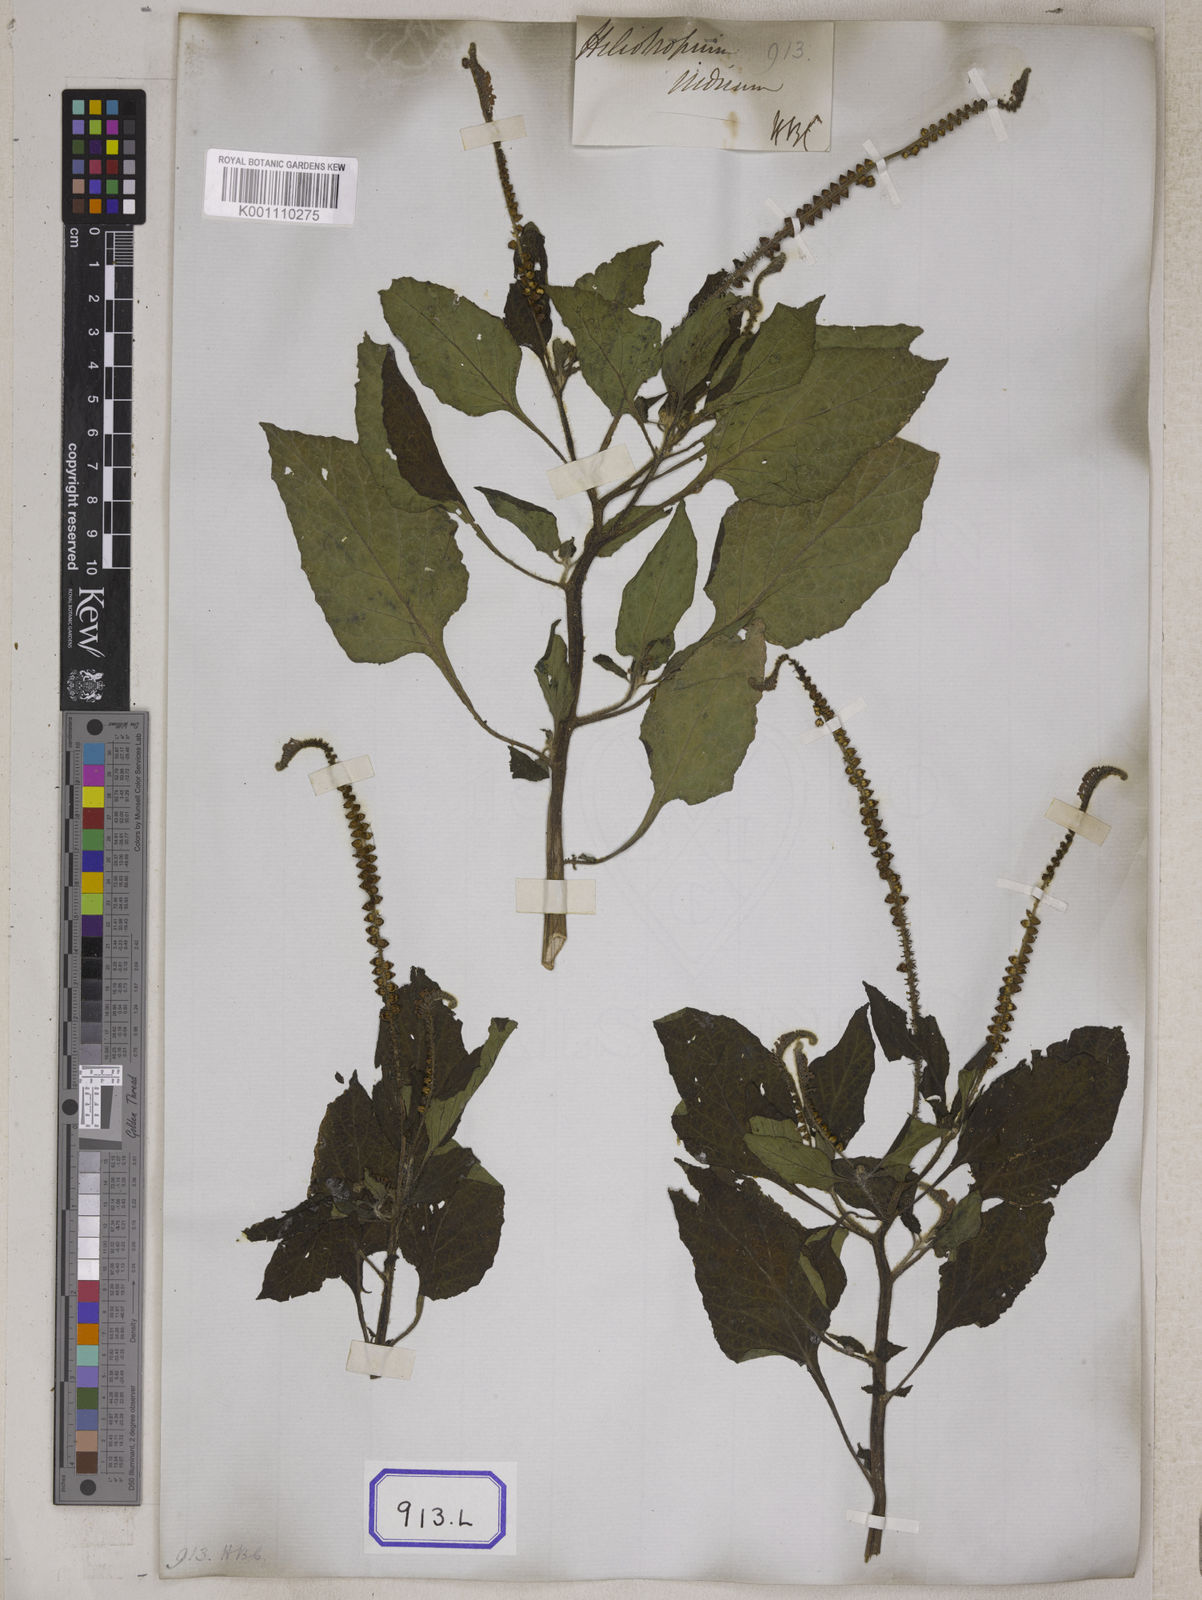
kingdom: Plantae
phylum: Tracheophyta
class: Magnoliopsida
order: Boraginales
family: Heliotropiaceae
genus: Heliotropium
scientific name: Heliotropium indicum
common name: Indian heliotrope
